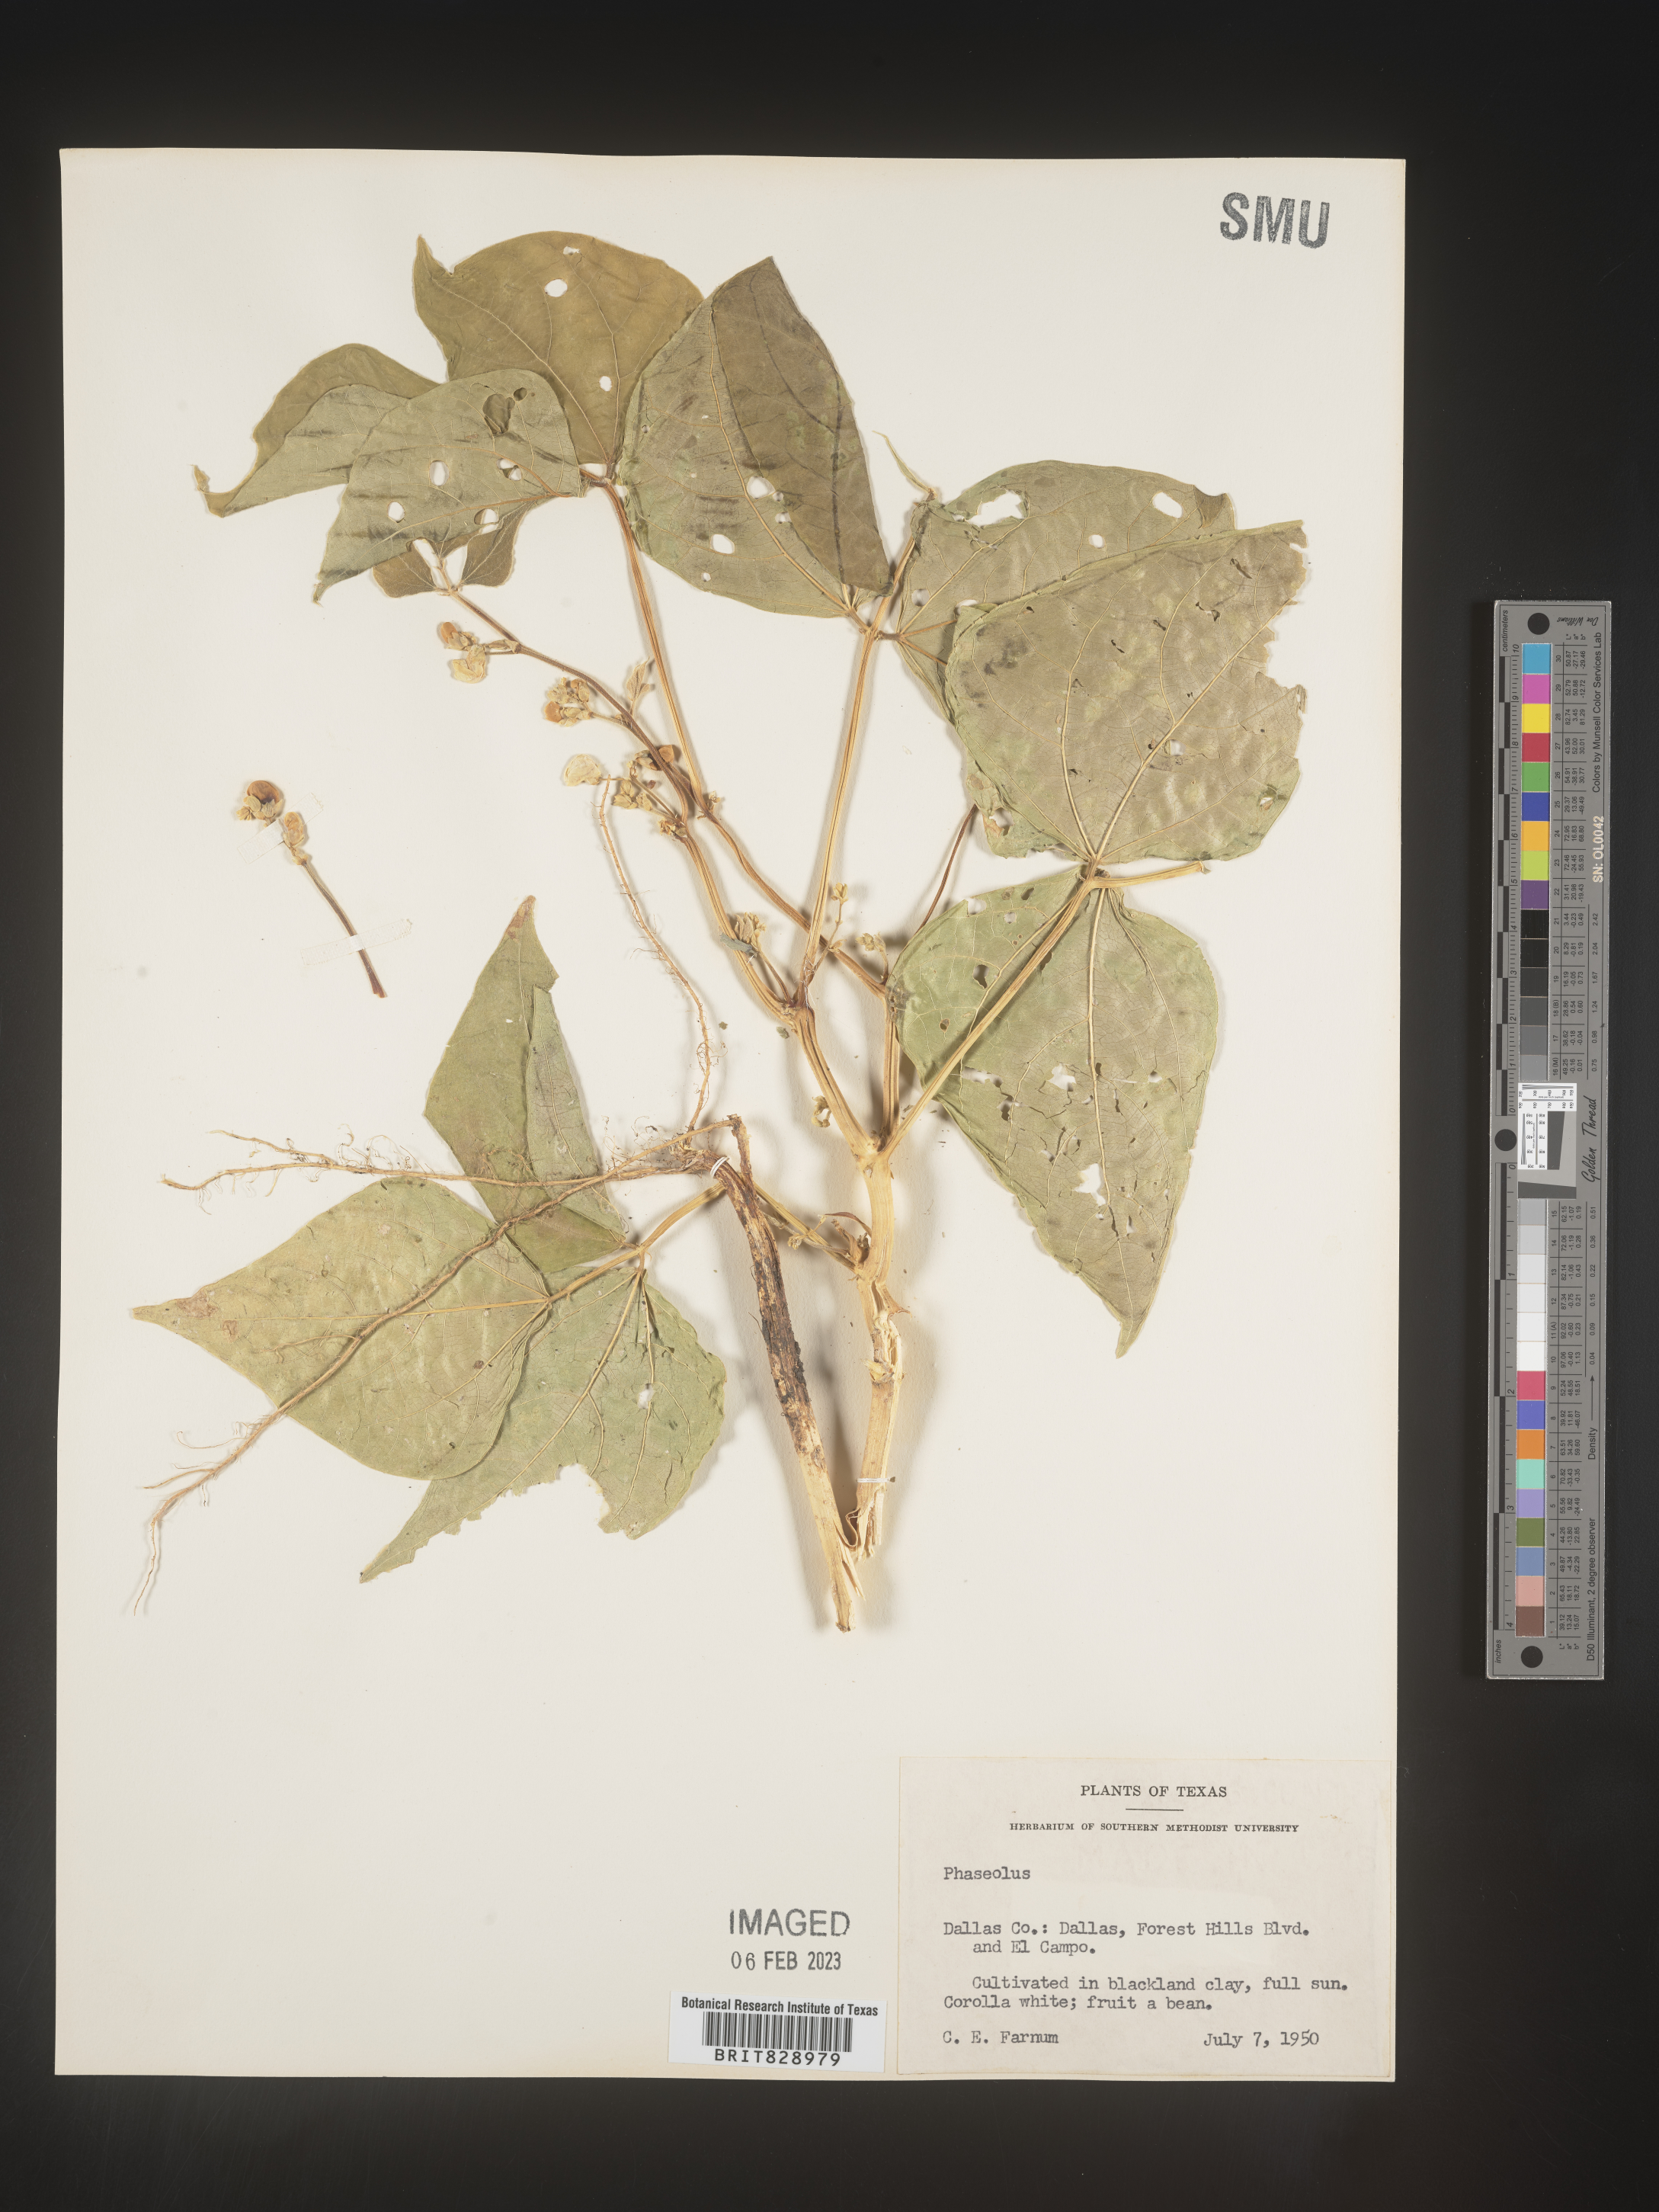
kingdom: Plantae
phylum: Tracheophyta
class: Magnoliopsida
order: Fabales
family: Fabaceae
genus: Phaseolus
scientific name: Phaseolus
